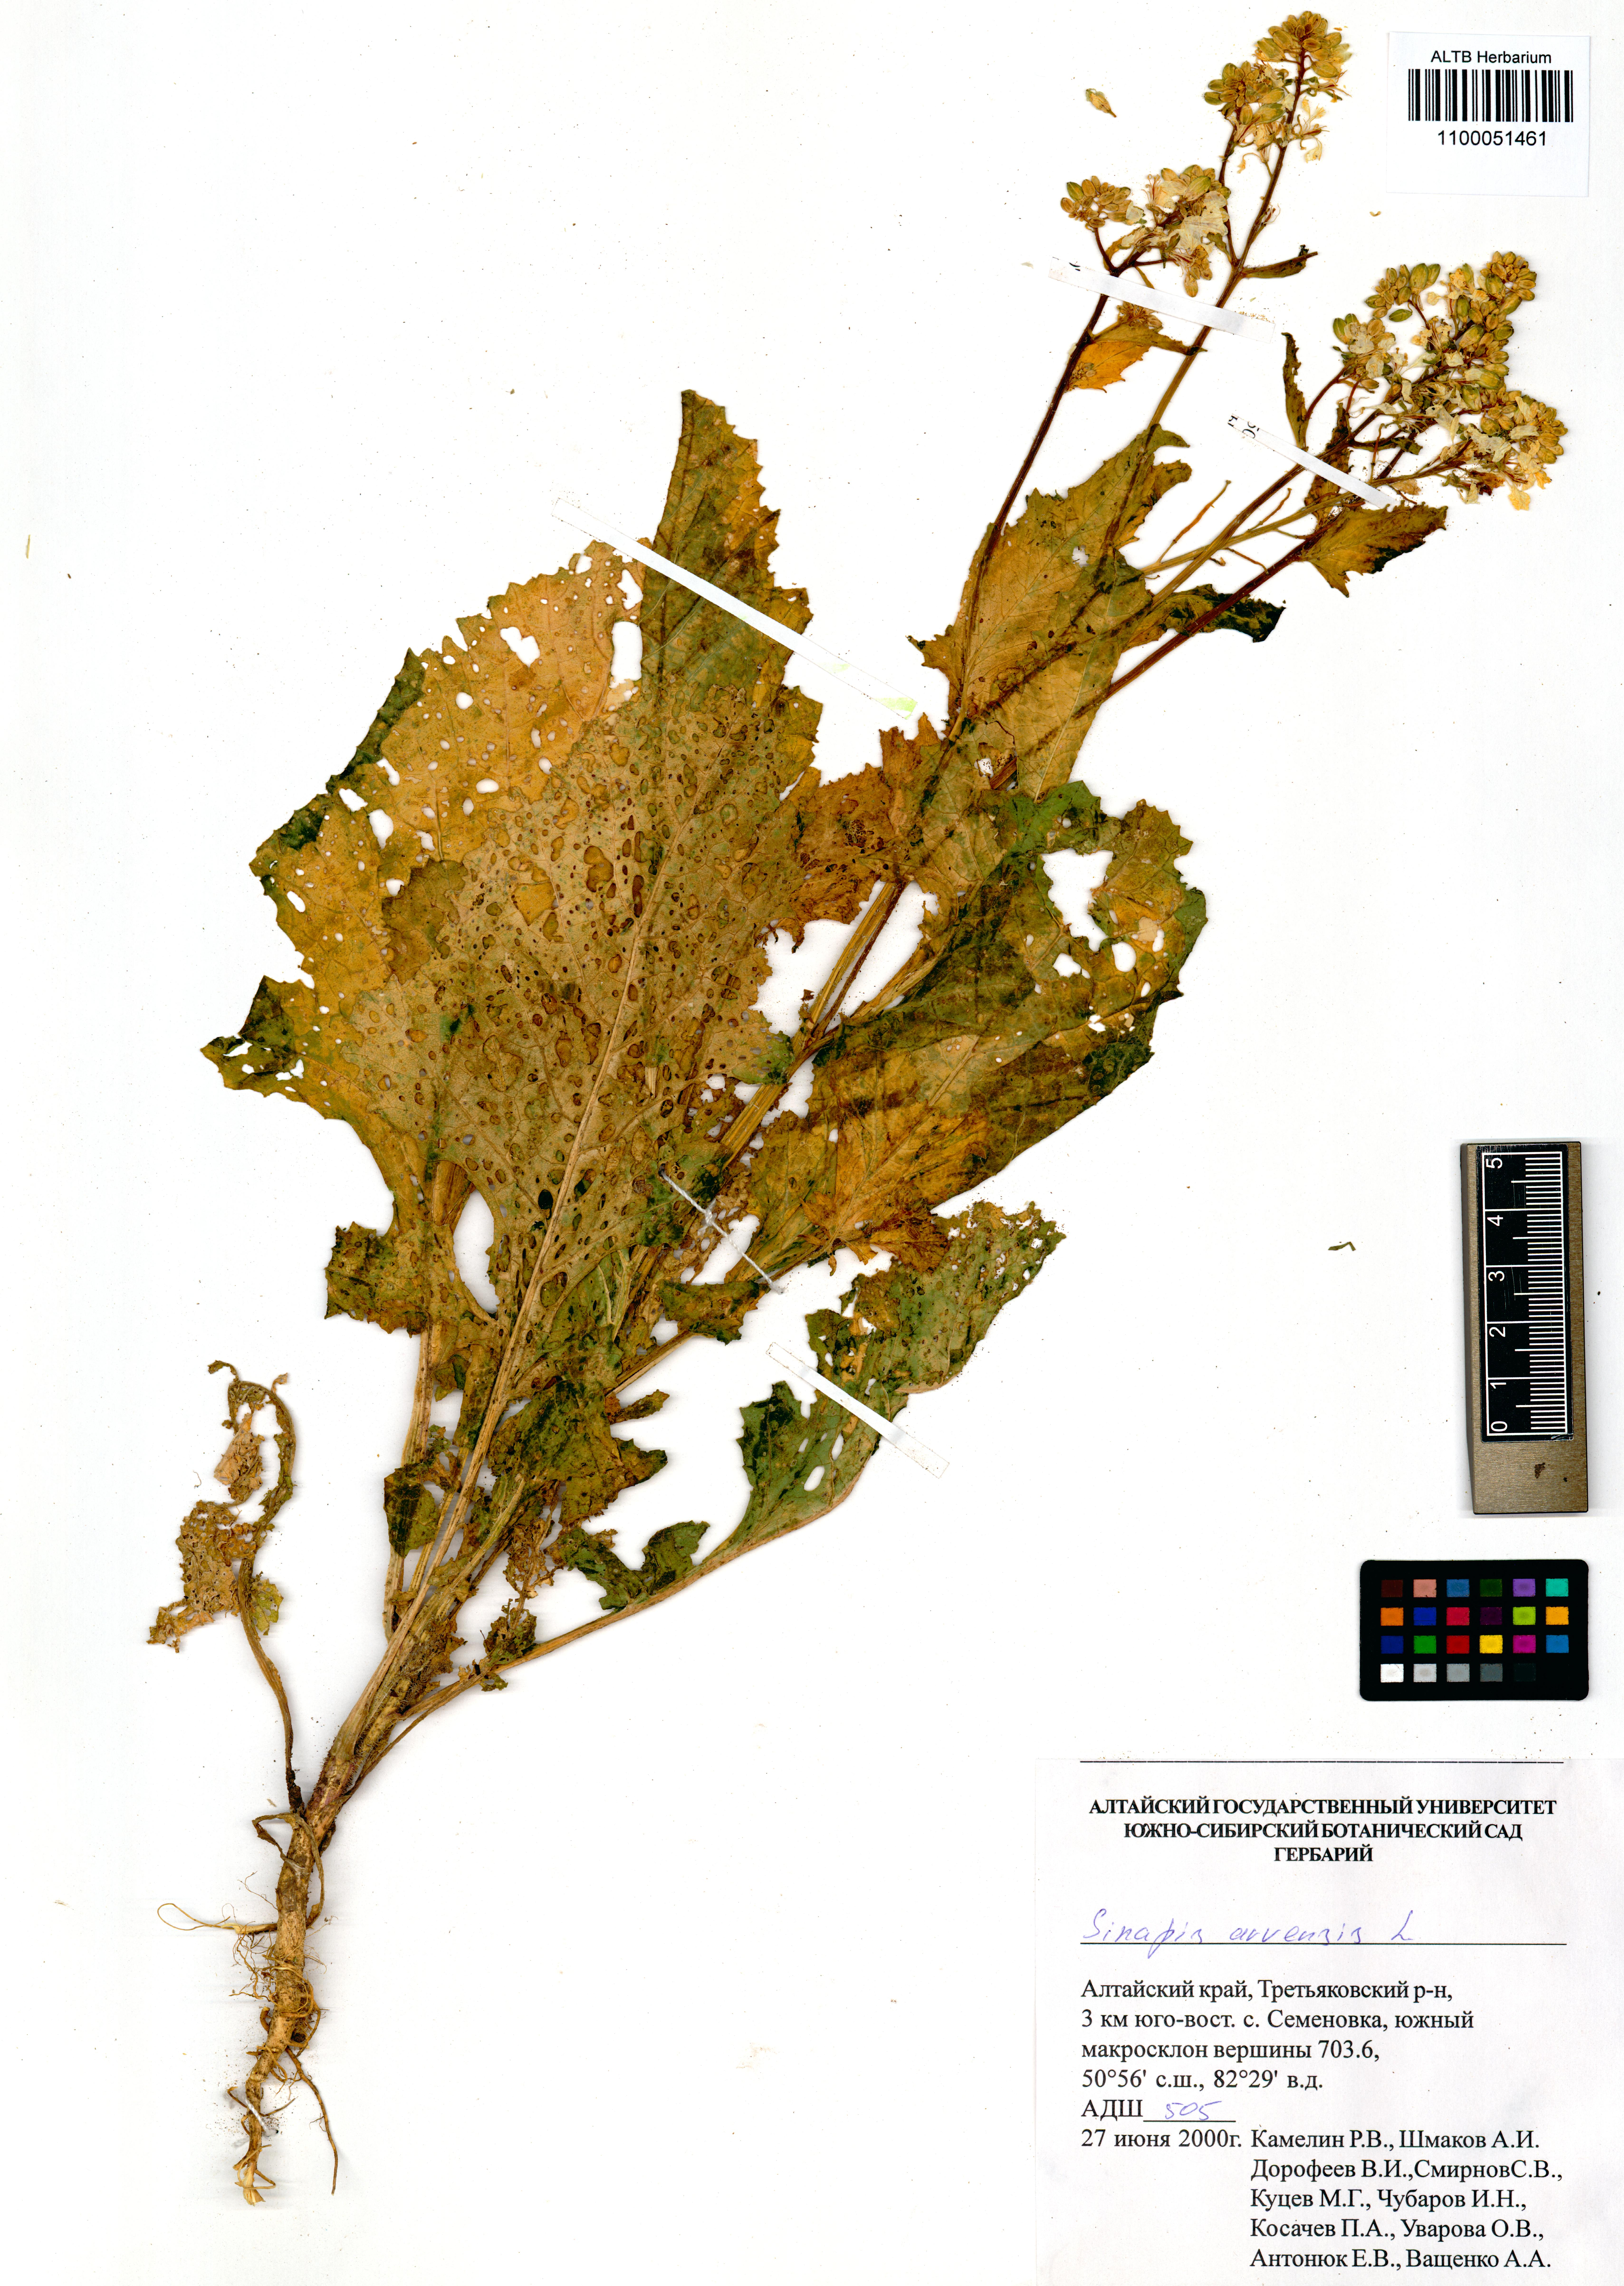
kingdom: Plantae
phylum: Tracheophyta
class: Magnoliopsida
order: Brassicales
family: Brassicaceae
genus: Sinapis
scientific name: Sinapis arvensis
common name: Charlock
